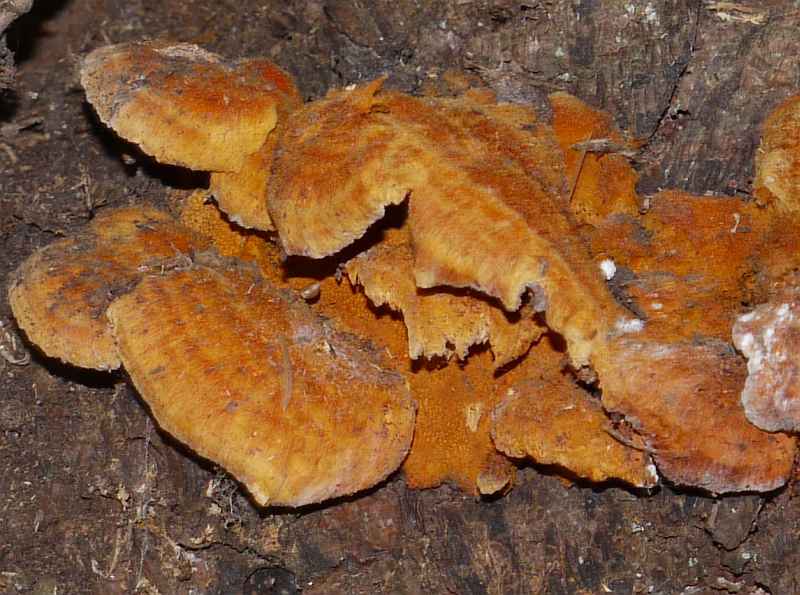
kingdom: Fungi
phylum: Basidiomycota
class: Agaricomycetes
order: Polyporales
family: Pycnoporellaceae
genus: Pycnoporellus
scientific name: Pycnoporellus fulgens
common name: flammeporesvamp
